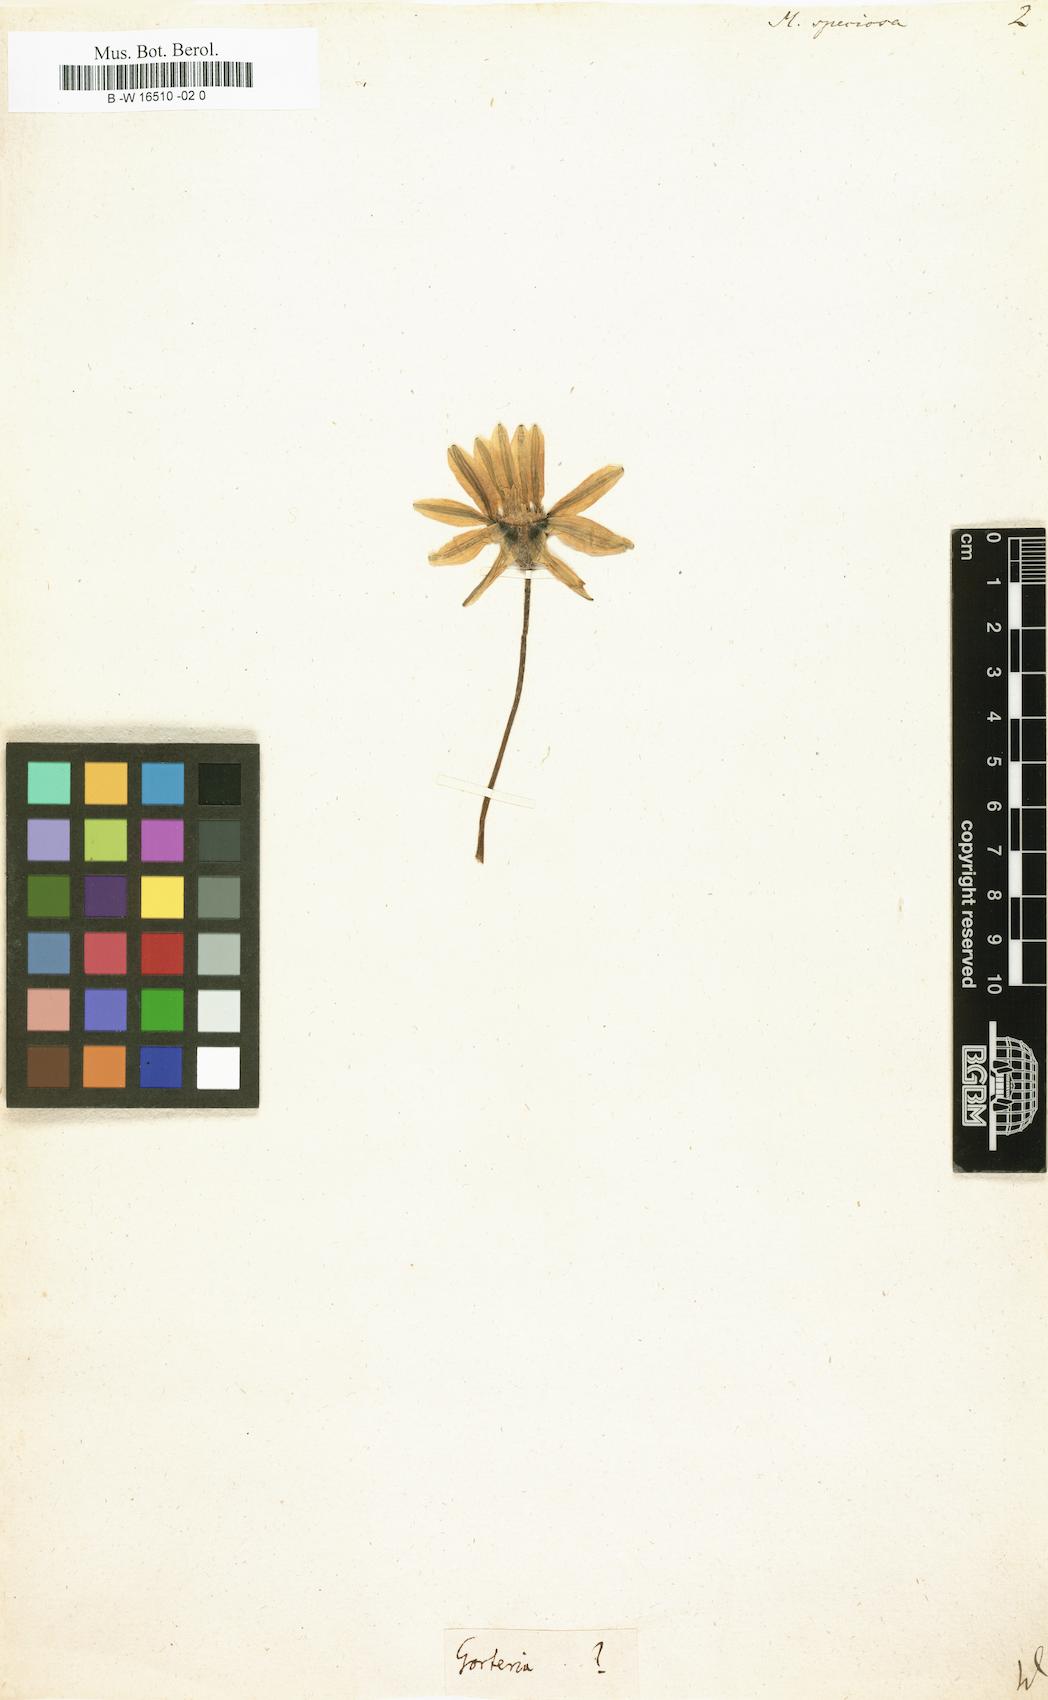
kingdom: Plantae
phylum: Tracheophyta
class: Magnoliopsida
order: Asterales
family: Asteraceae
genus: Gazania
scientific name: Gazania pectinata
